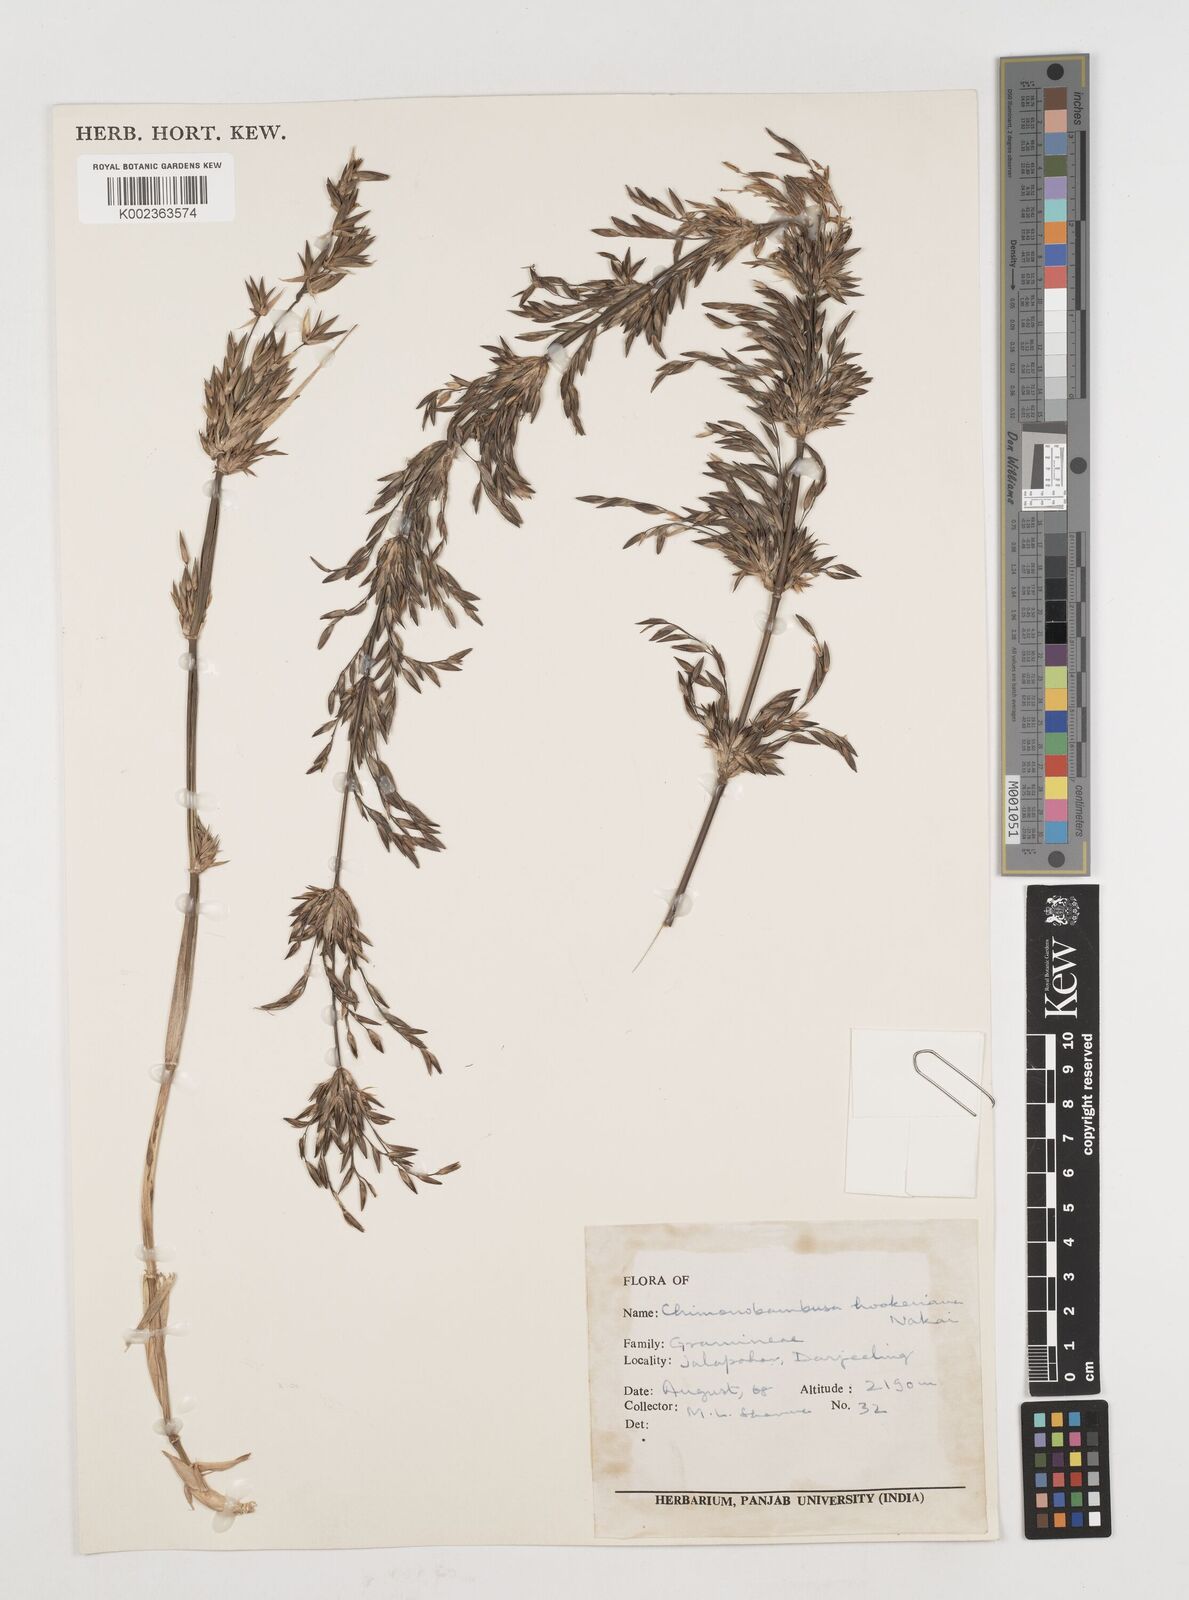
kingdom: Plantae
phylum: Tracheophyta
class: Liliopsida
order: Poales
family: Poaceae
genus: Himalayacalamus
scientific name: Himalayacalamus hookerianus
